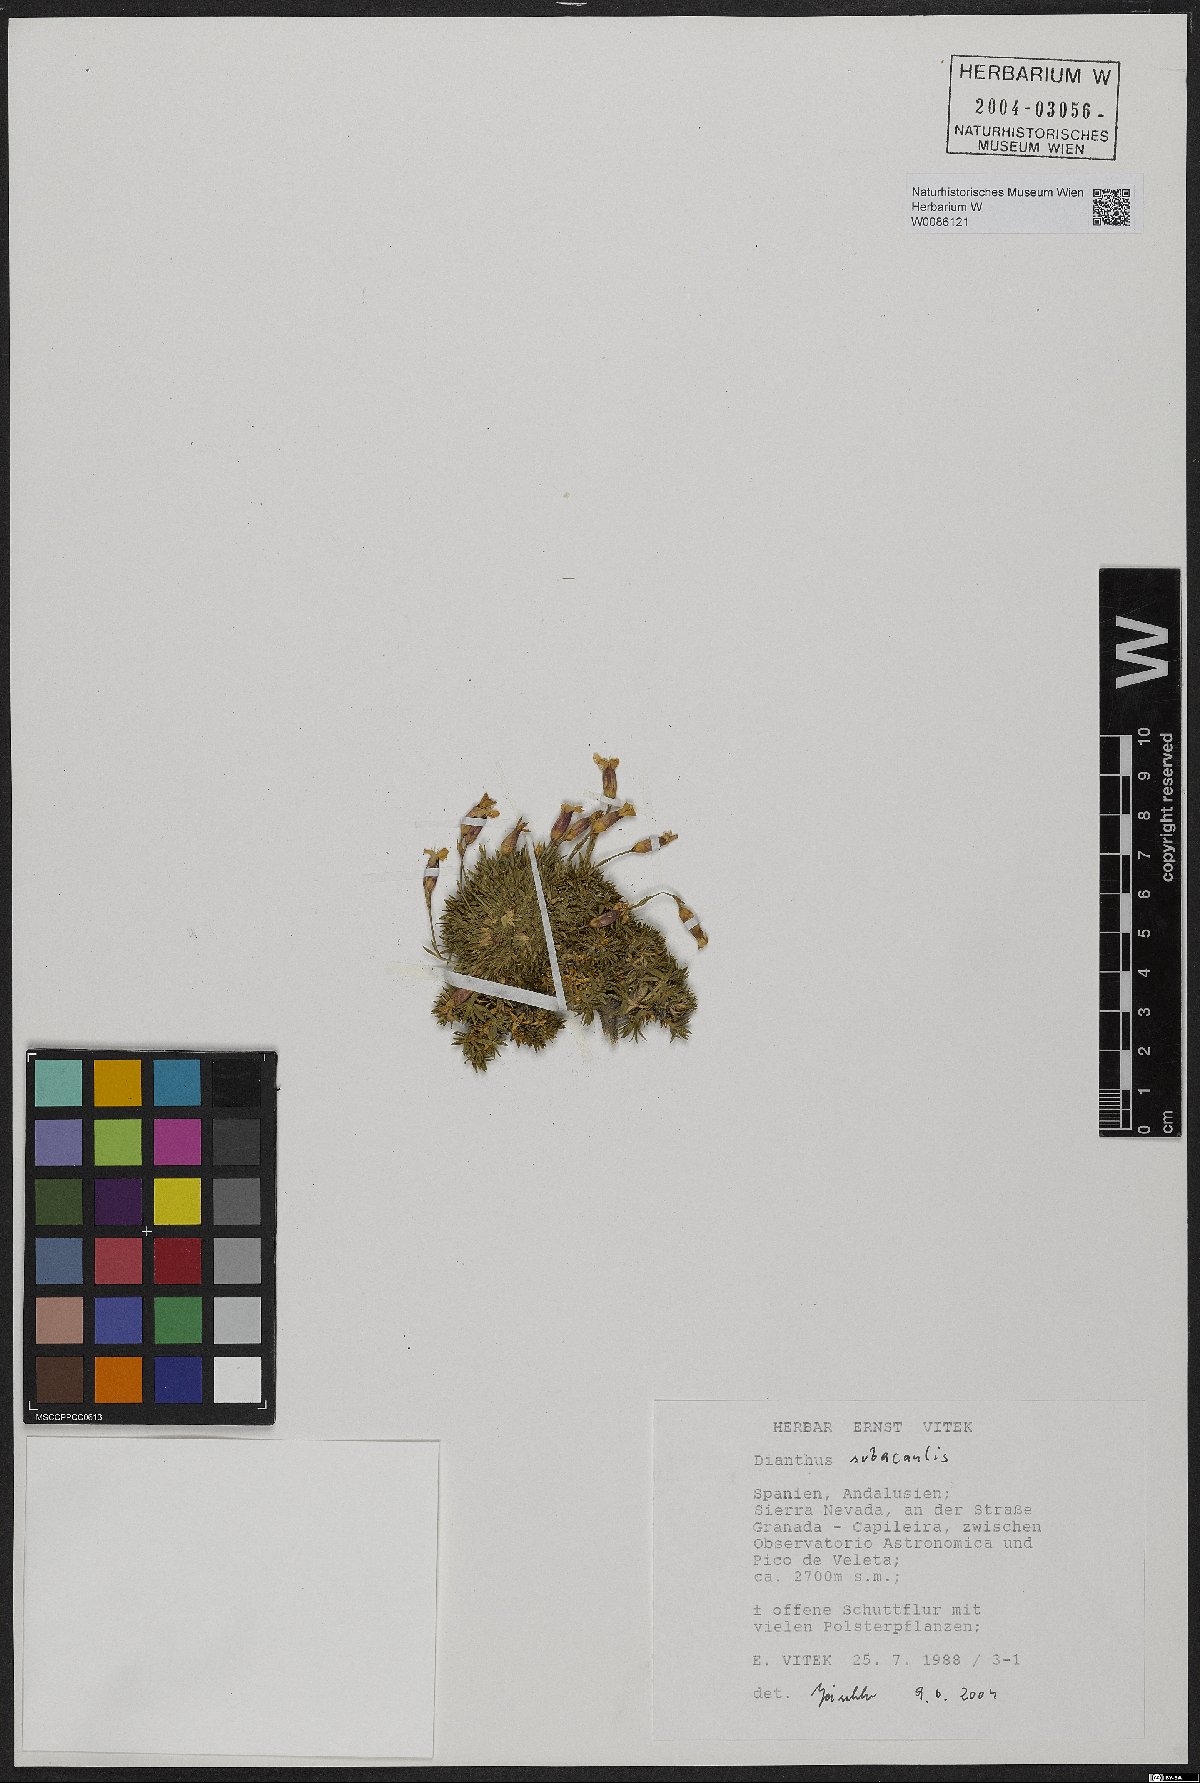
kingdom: Plantae
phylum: Tracheophyta
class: Magnoliopsida
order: Caryophyllales
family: Caryophyllaceae
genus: Dianthus
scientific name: Dianthus subacaulis
